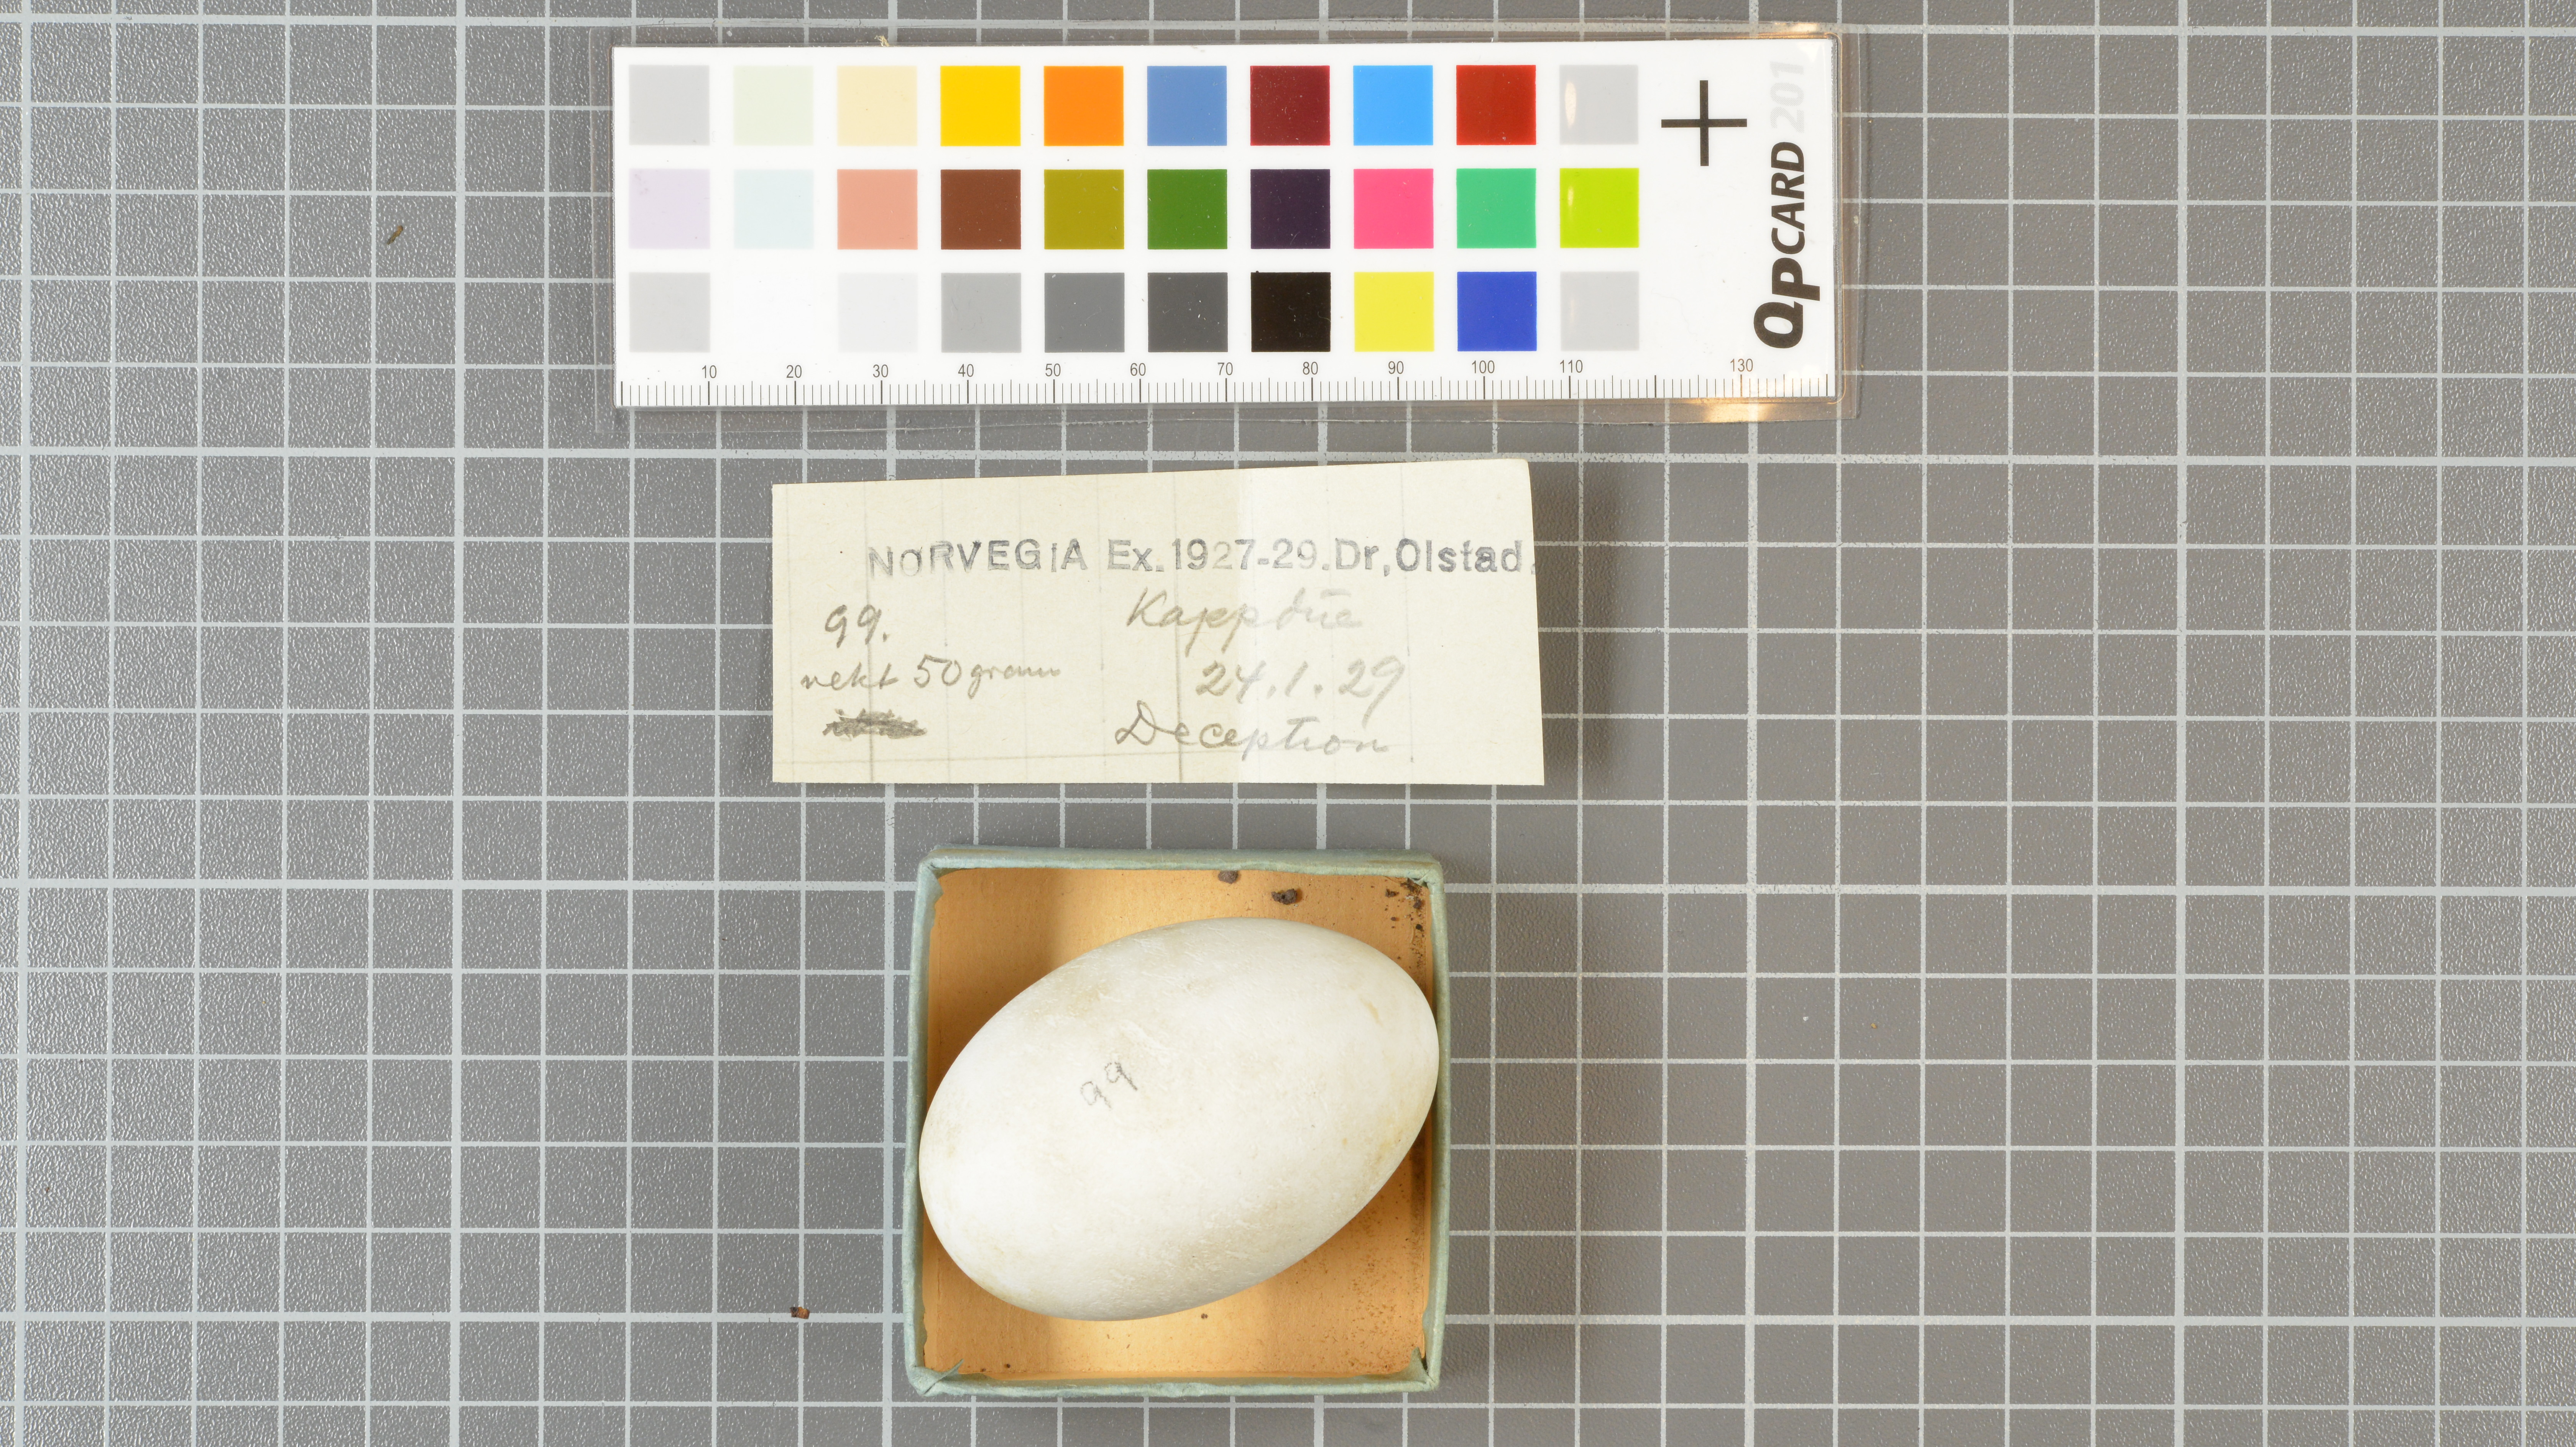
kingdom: Animalia
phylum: Chordata
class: Aves
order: Procellariiformes
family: Procellariidae
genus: Daption
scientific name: Daption capense
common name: Cape petrel
